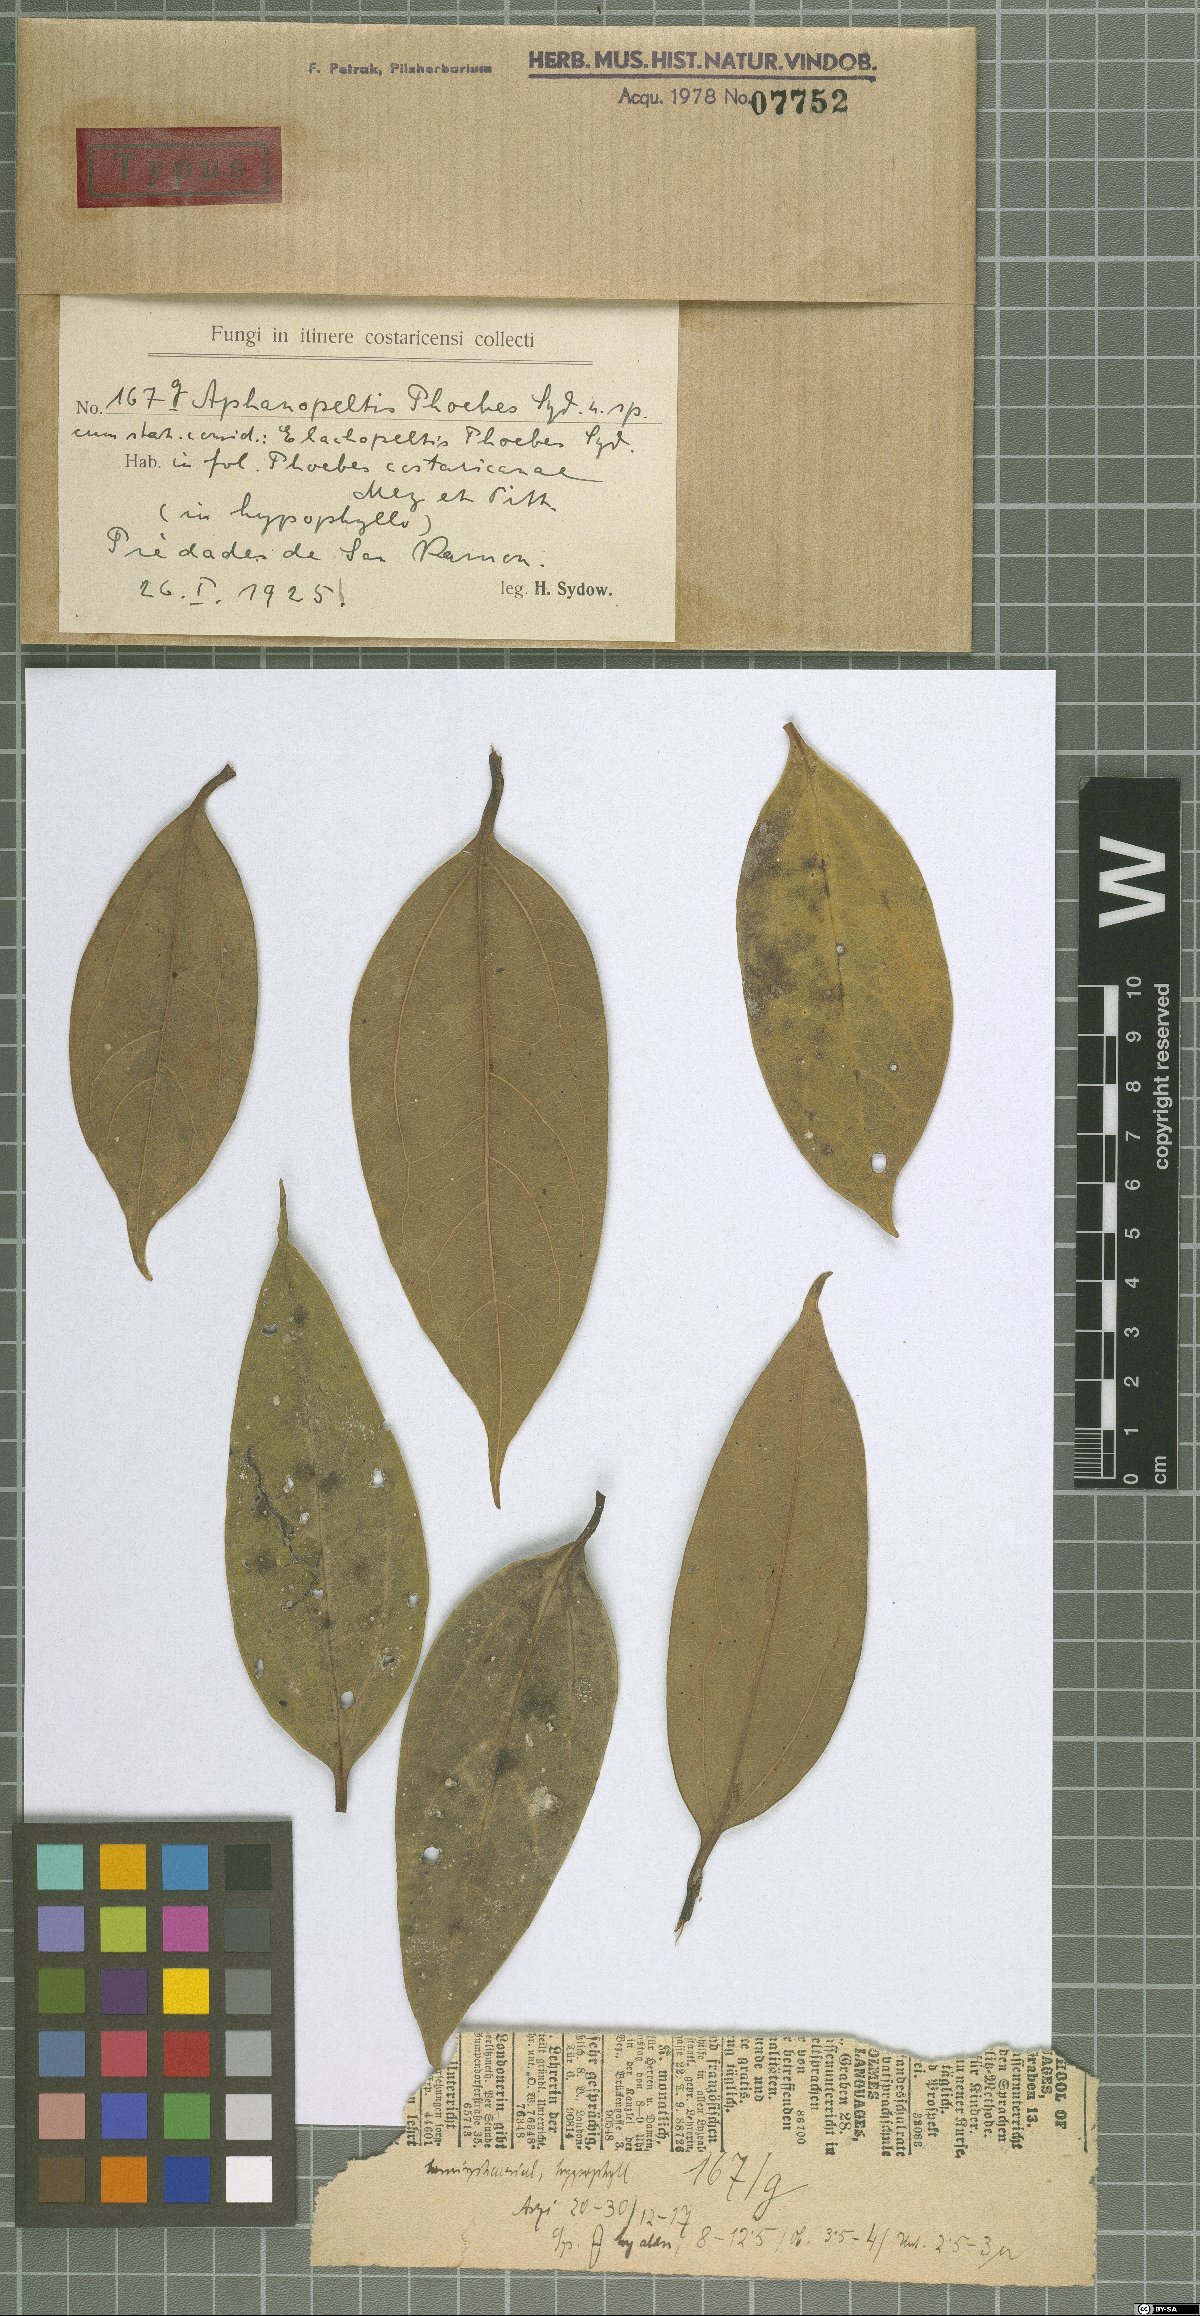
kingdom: Fungi
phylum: Ascomycota
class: Dothideomycetes
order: Asterinales
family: Asterinaceae
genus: Asterina
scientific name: Asterina phoebes-costaricanae
